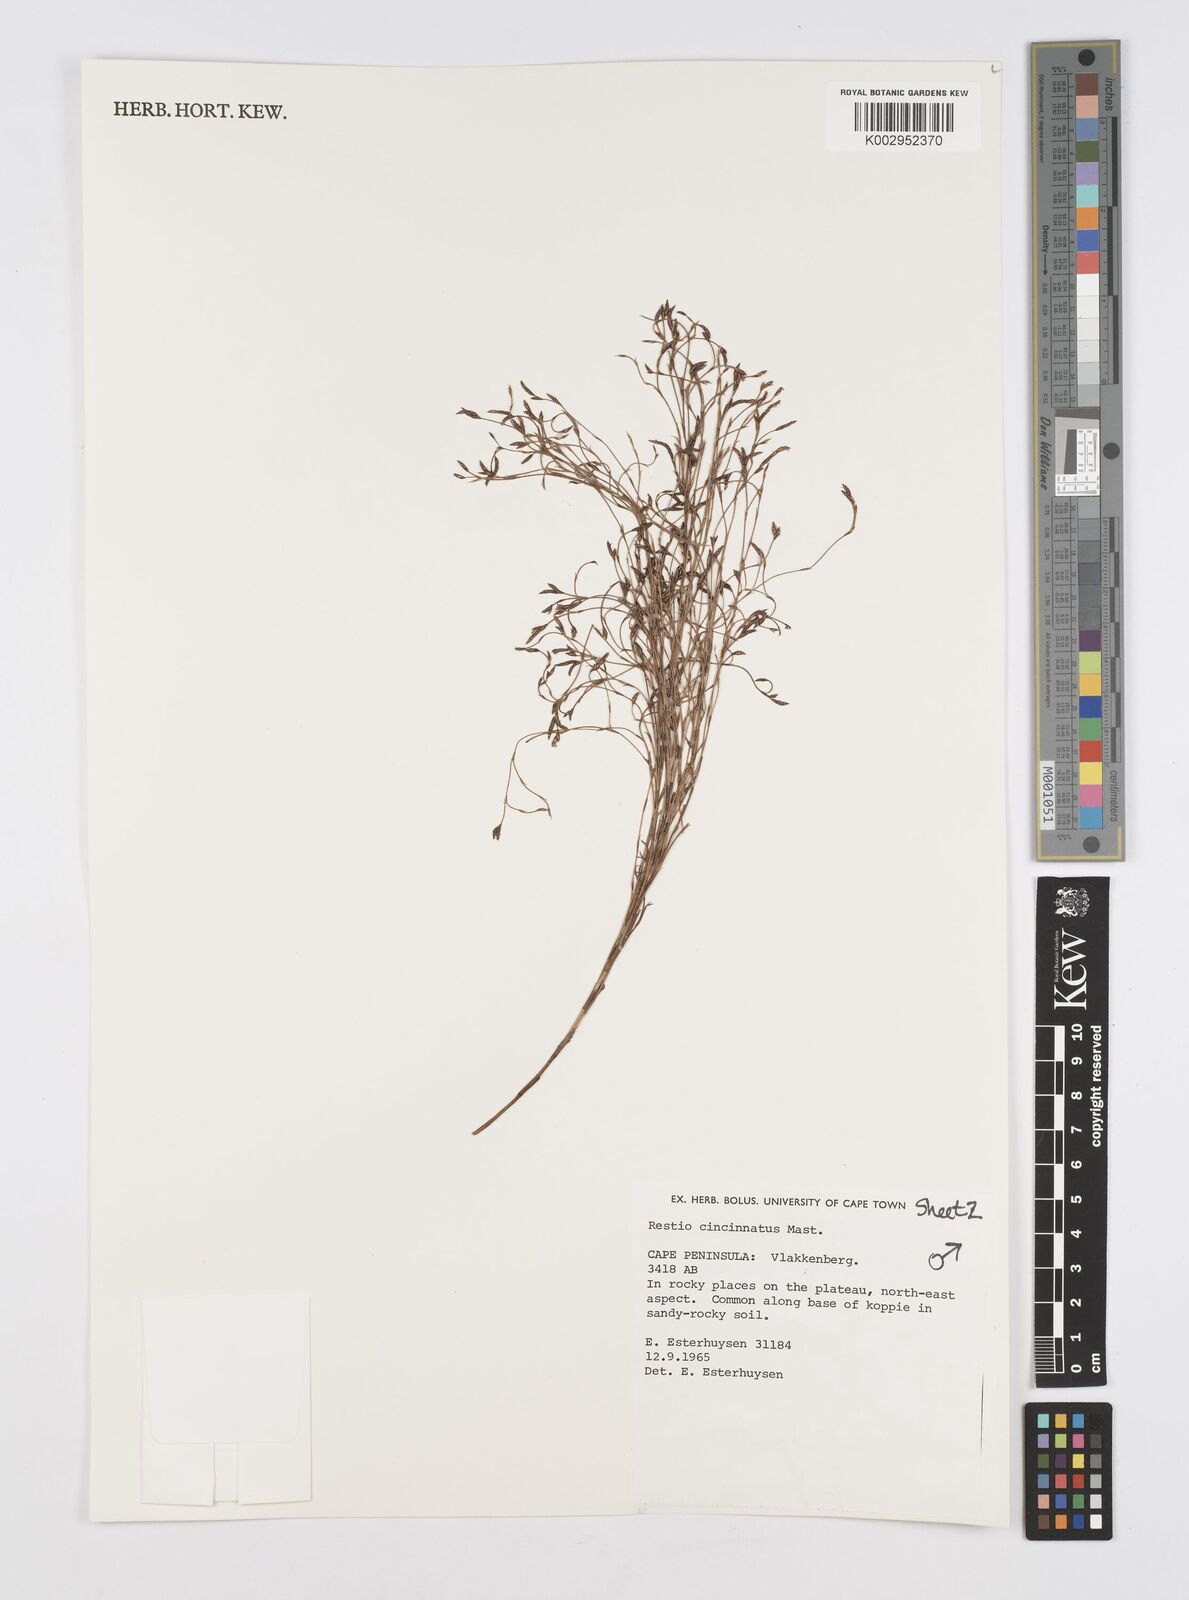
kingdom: Plantae
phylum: Tracheophyta
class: Liliopsida
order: Poales
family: Restionaceae
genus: Restio
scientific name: Restio cincinnatus
